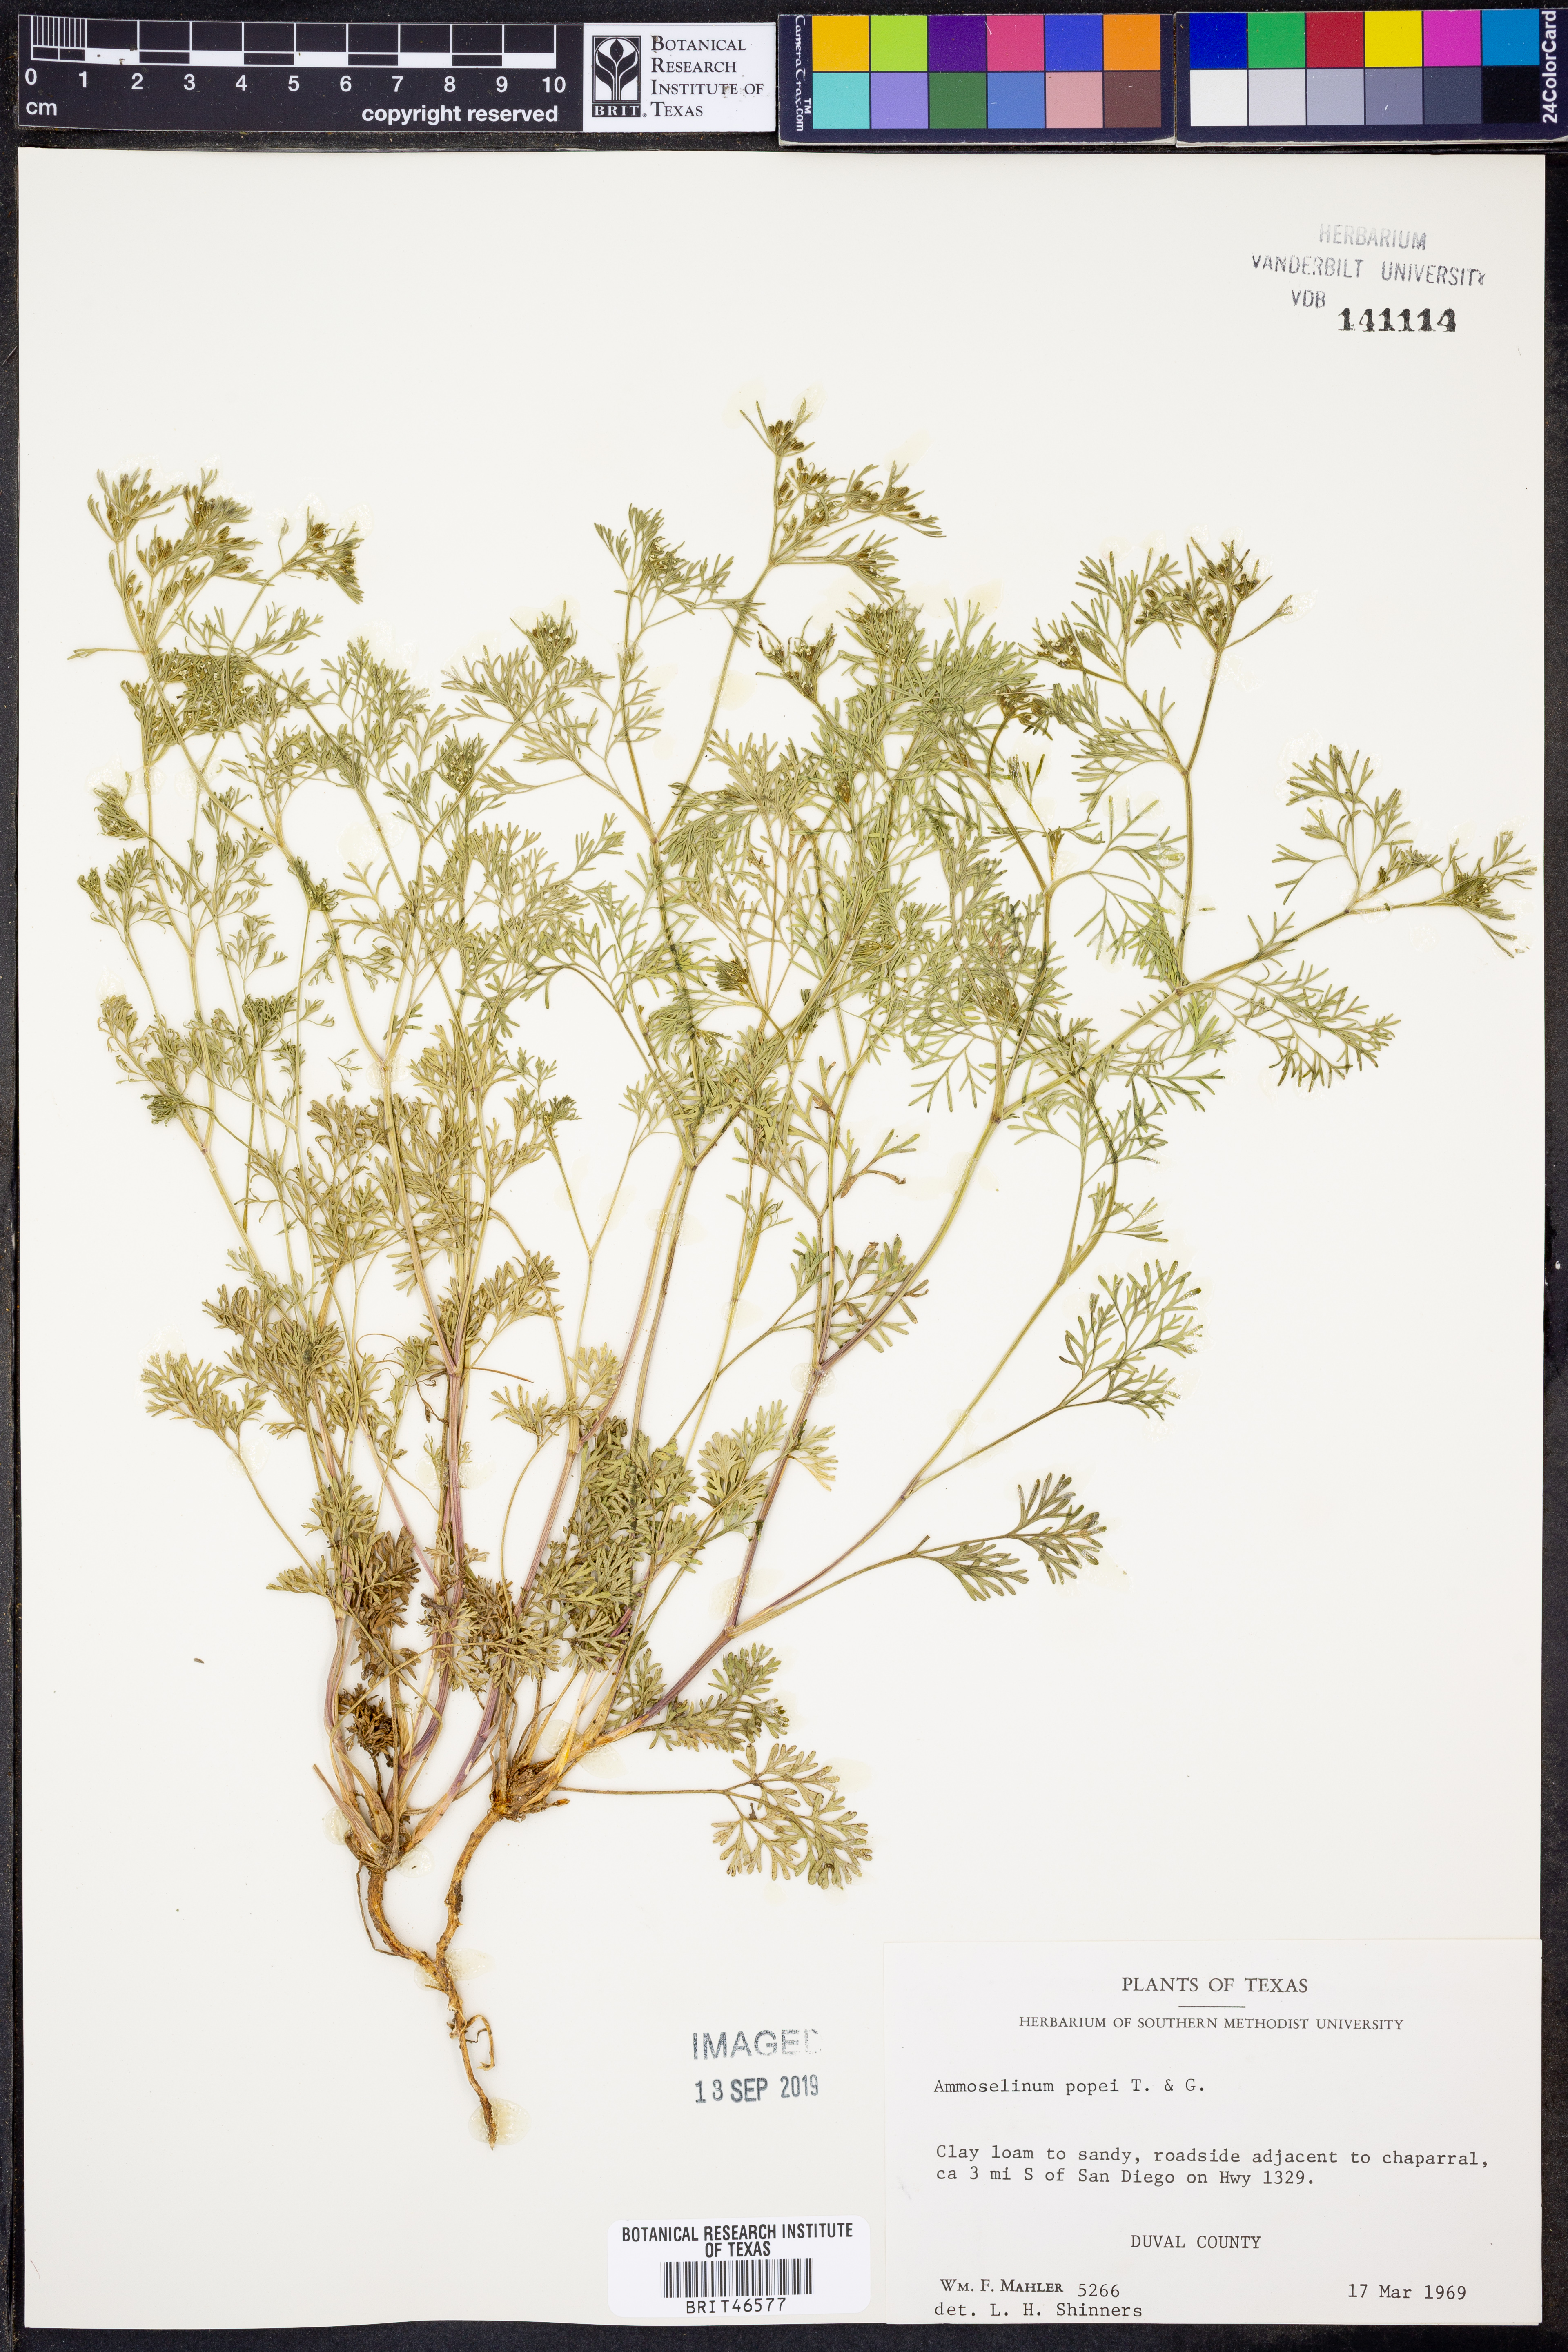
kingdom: Plantae
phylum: Tracheophyta
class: Magnoliopsida
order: Apiales
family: Apiaceae
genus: Ammoselinum
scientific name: Ammoselinum popei
